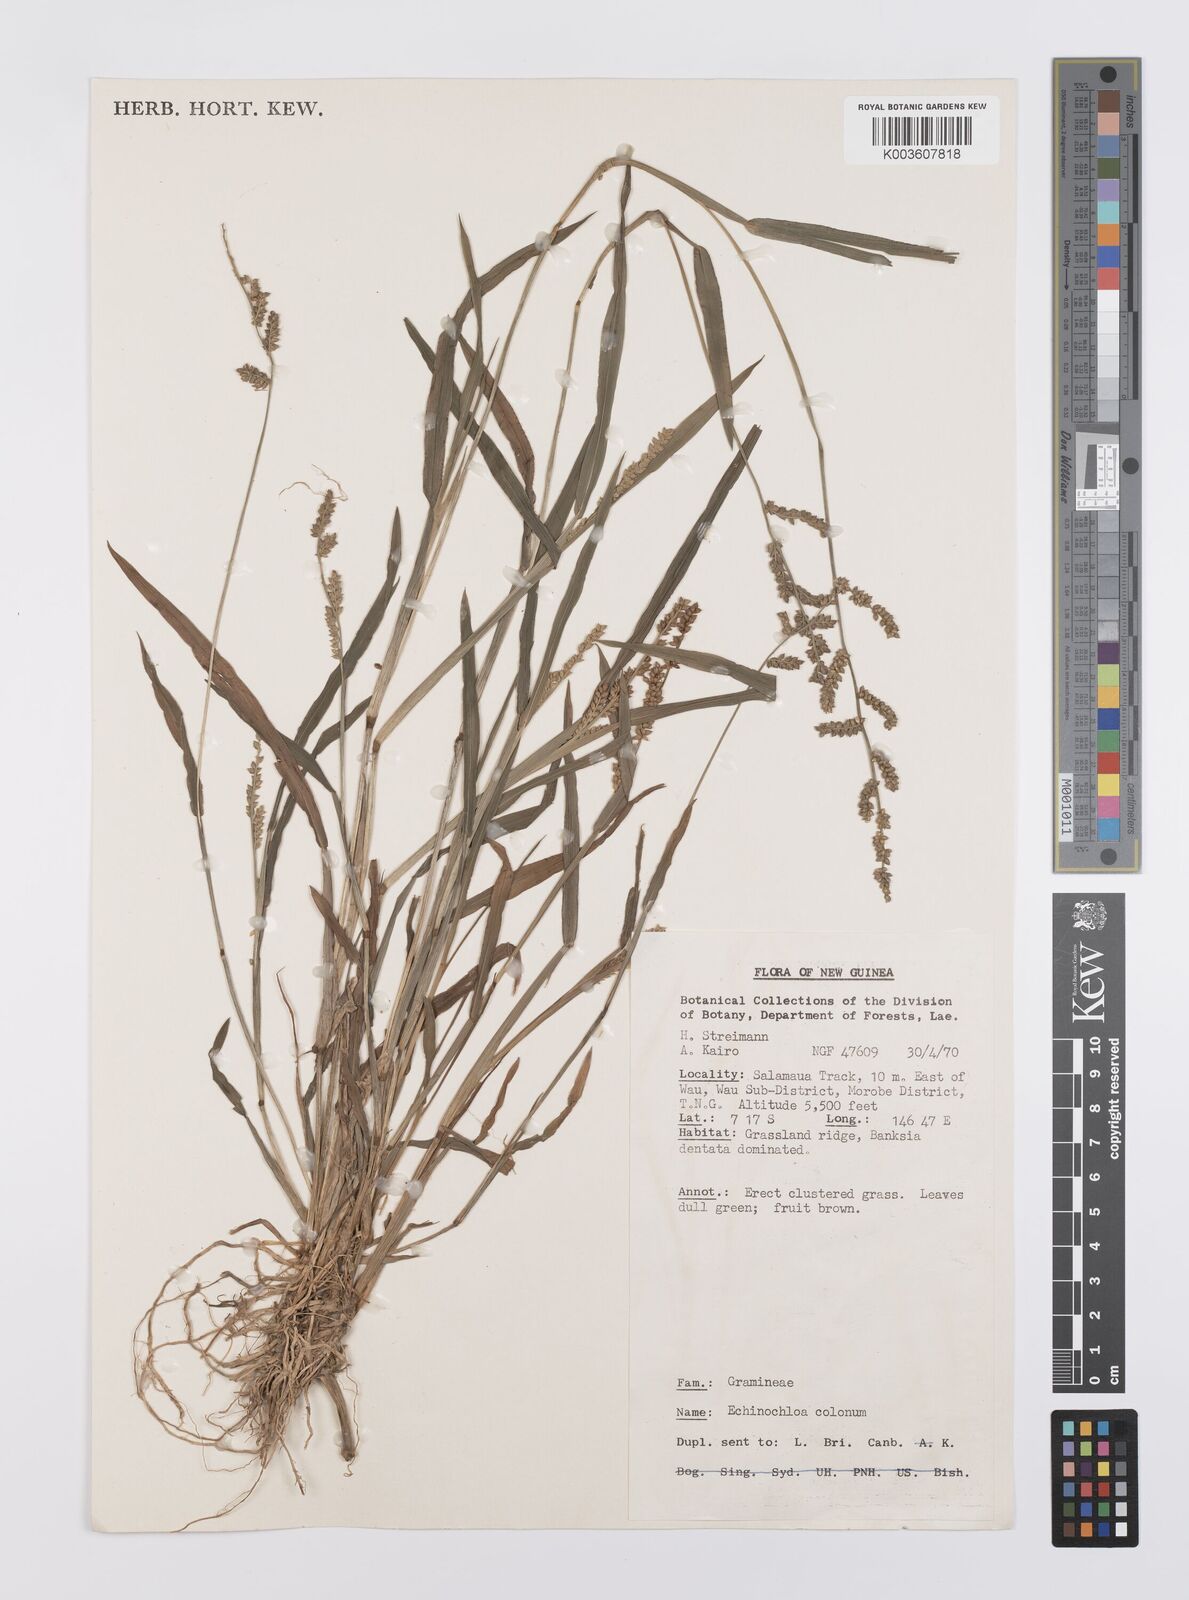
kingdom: Plantae
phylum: Tracheophyta
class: Liliopsida
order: Poales
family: Poaceae
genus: Echinochloa
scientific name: Echinochloa colonum
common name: Jungle rice
